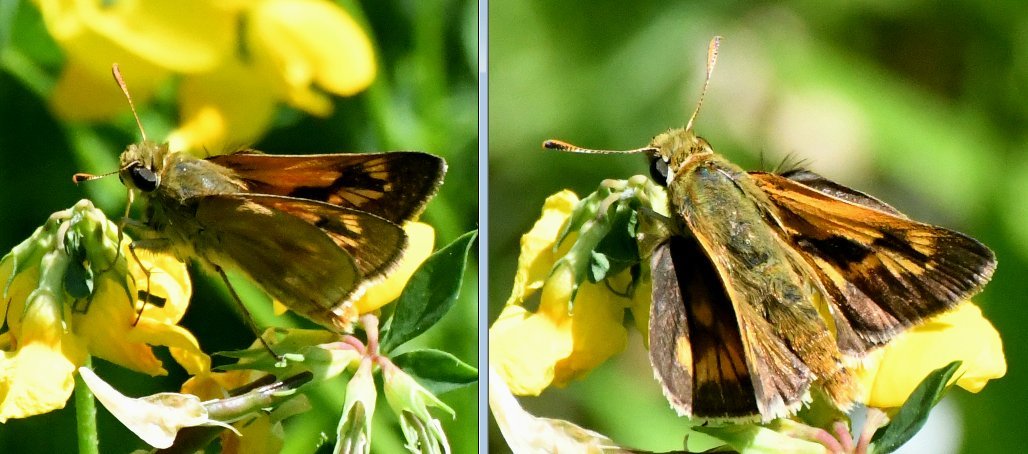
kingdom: Animalia
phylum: Arthropoda
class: Insecta
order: Lepidoptera
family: Hesperiidae
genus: Polites
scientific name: Polites
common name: Long Dash Skipper
